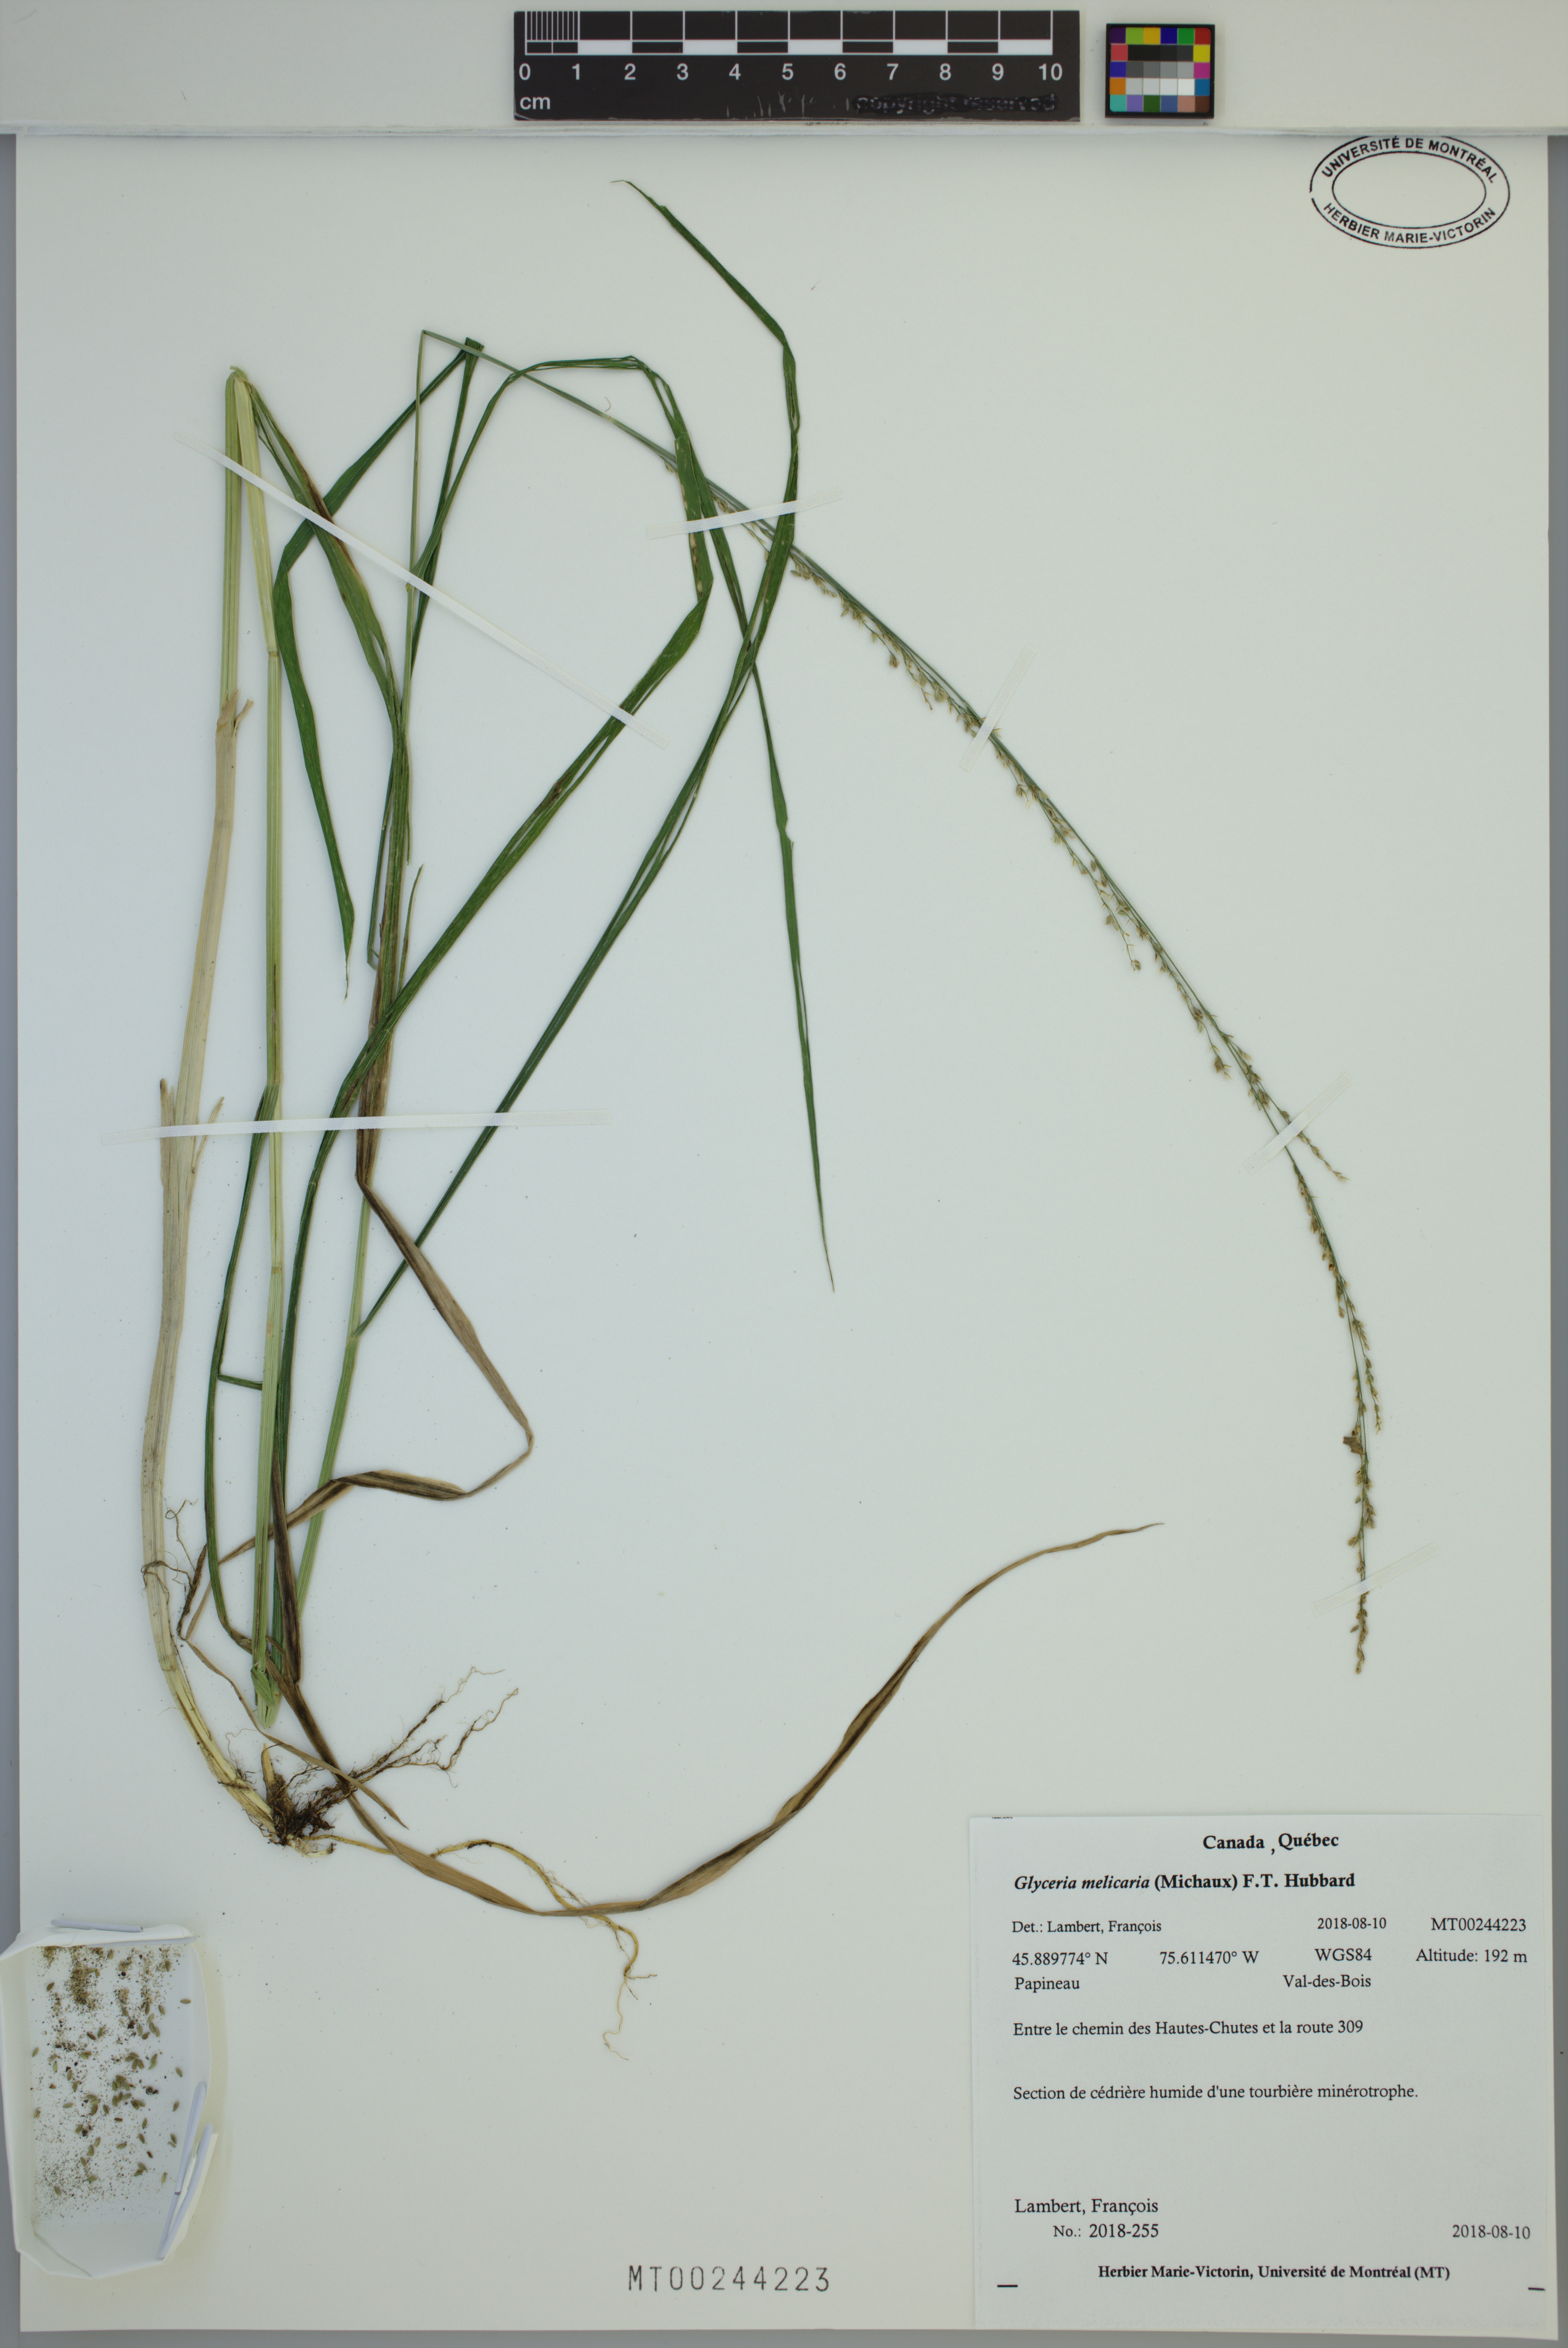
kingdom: Plantae
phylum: Tracheophyta
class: Liliopsida
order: Poales
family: Poaceae
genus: Glyceria
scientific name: Glyceria melicaria
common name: Long mannagrass
